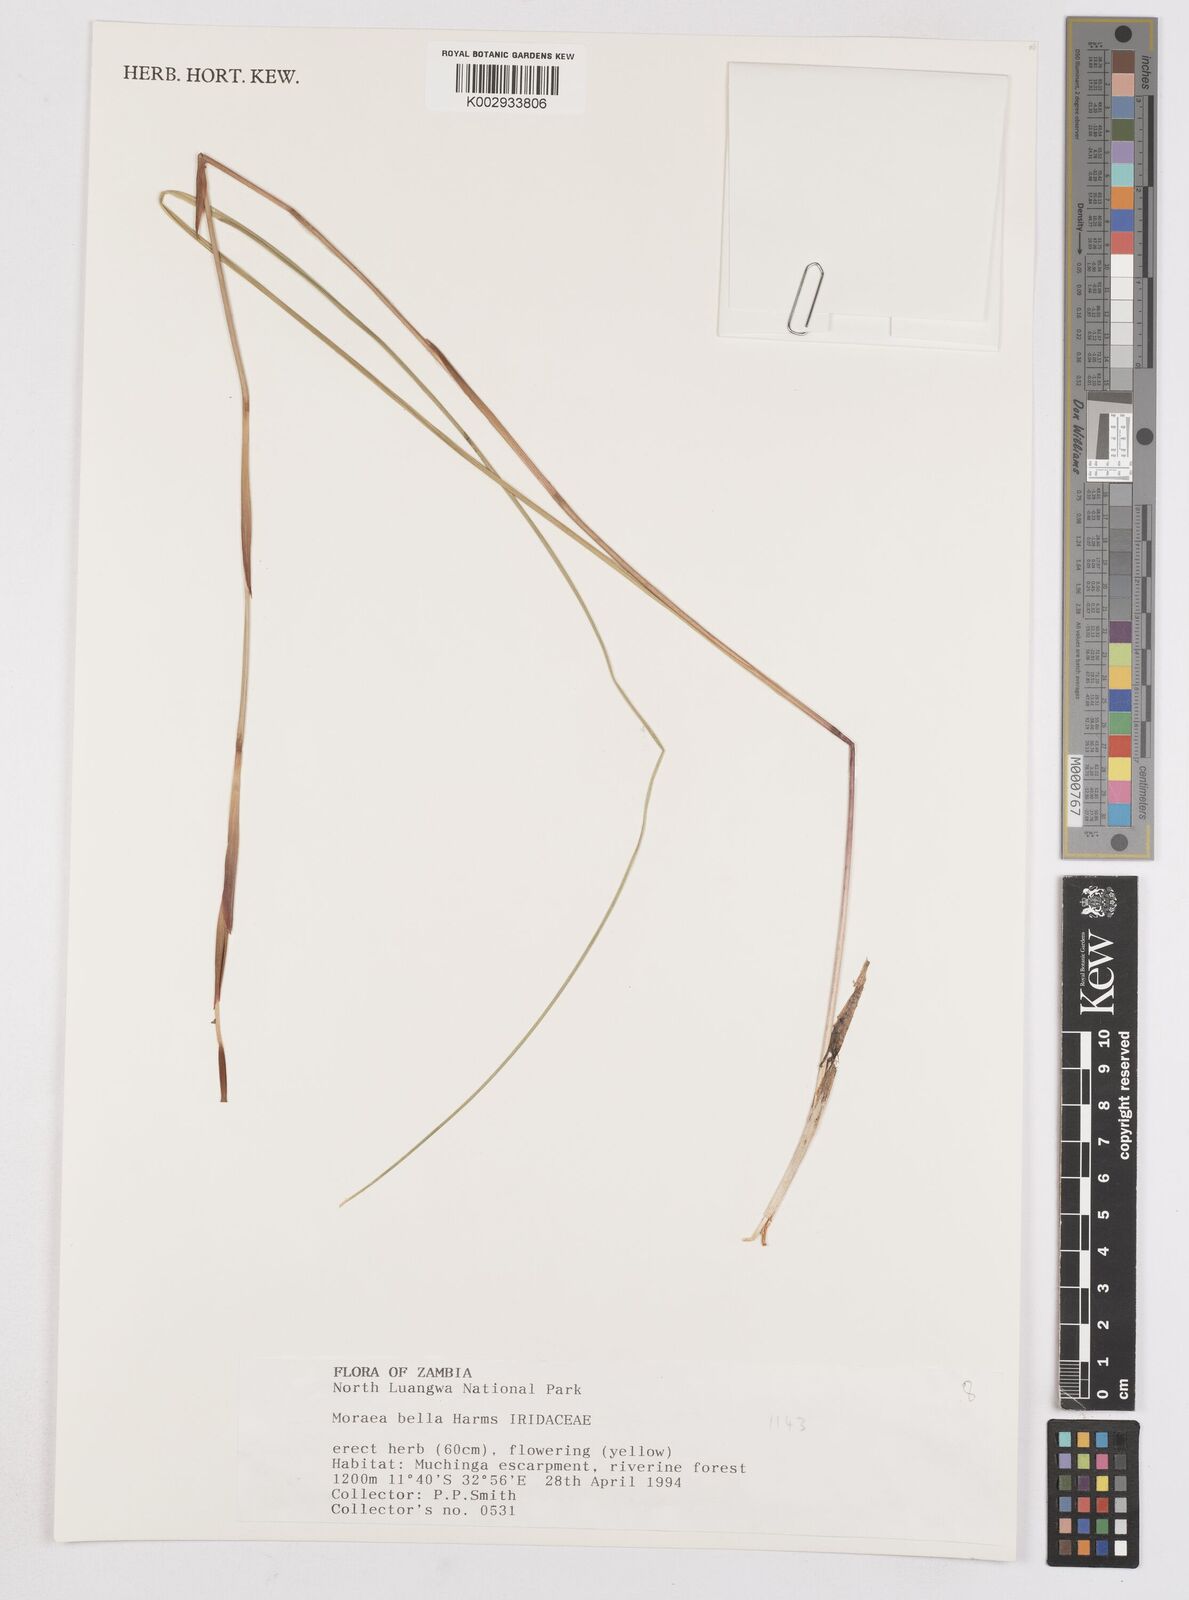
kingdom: Plantae
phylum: Tracheophyta
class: Liliopsida
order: Asparagales
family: Iridaceae
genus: Moraea
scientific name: Moraea bella
